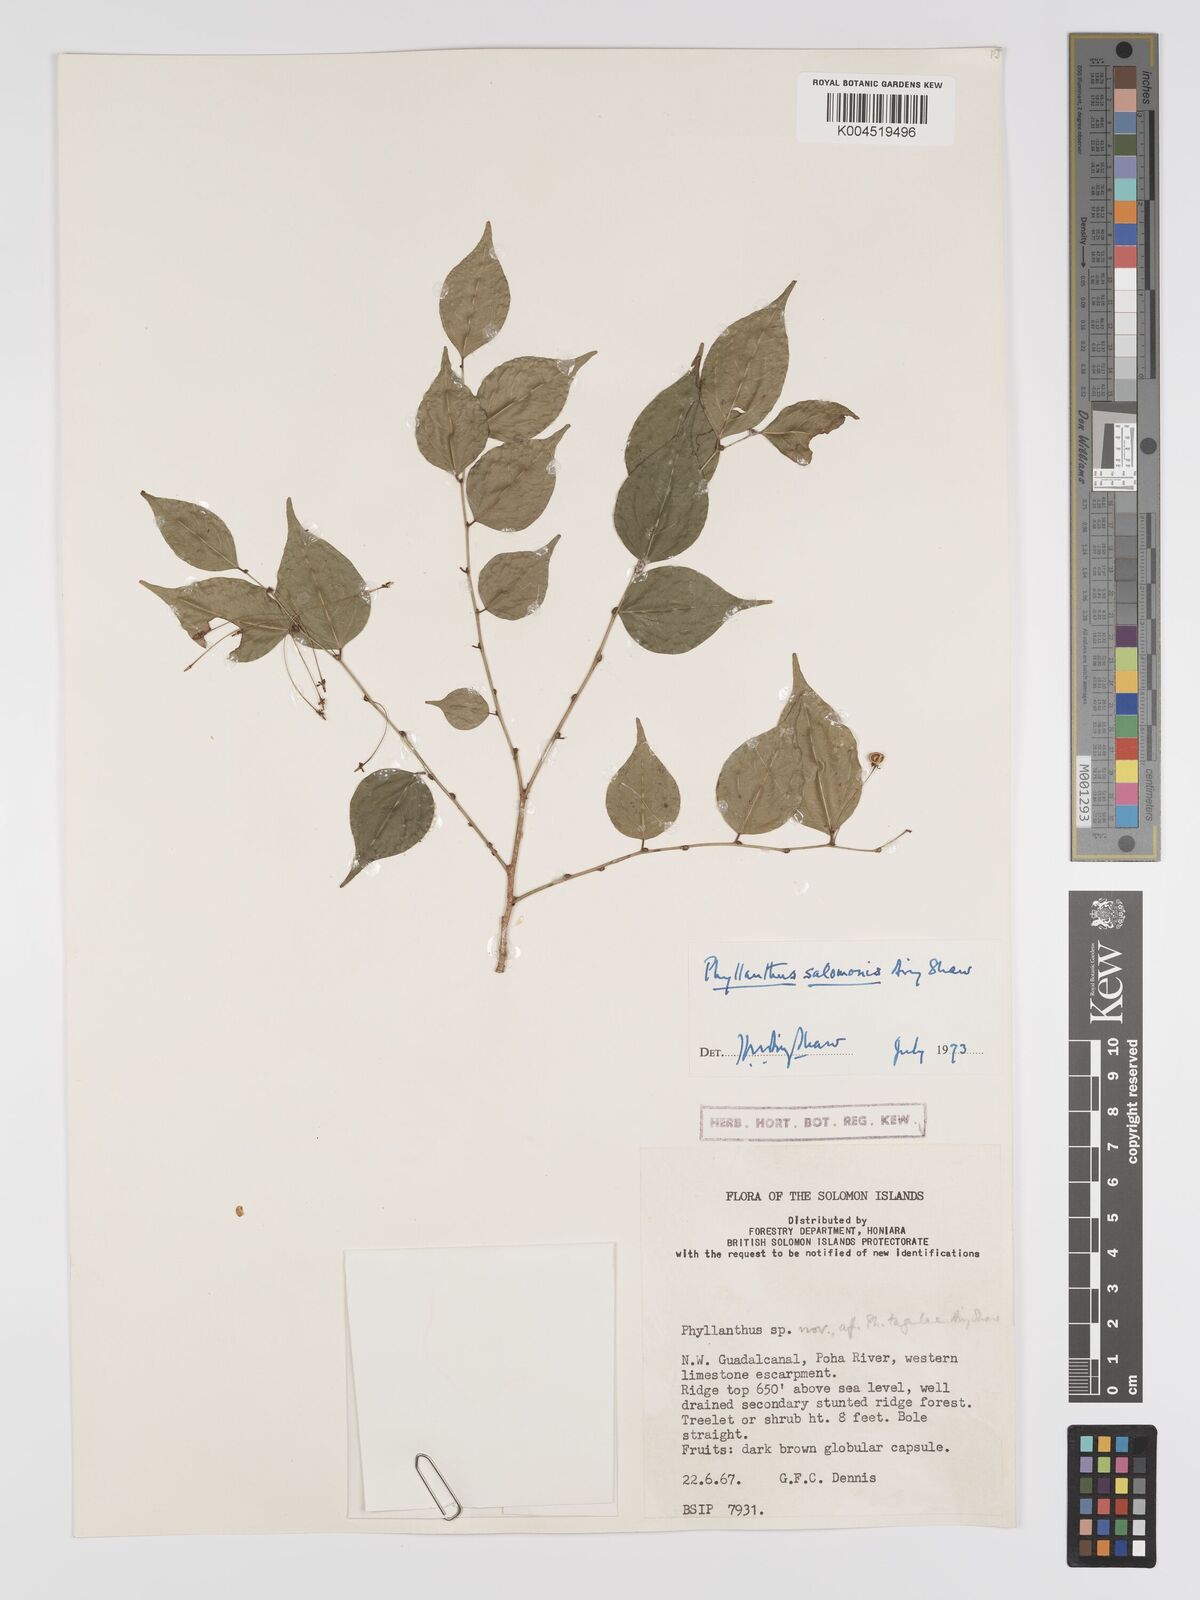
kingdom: Plantae
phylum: Tracheophyta
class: Magnoliopsida
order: Malpighiales
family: Phyllanthaceae
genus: Phyllanthus
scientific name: Phyllanthus salomonis
